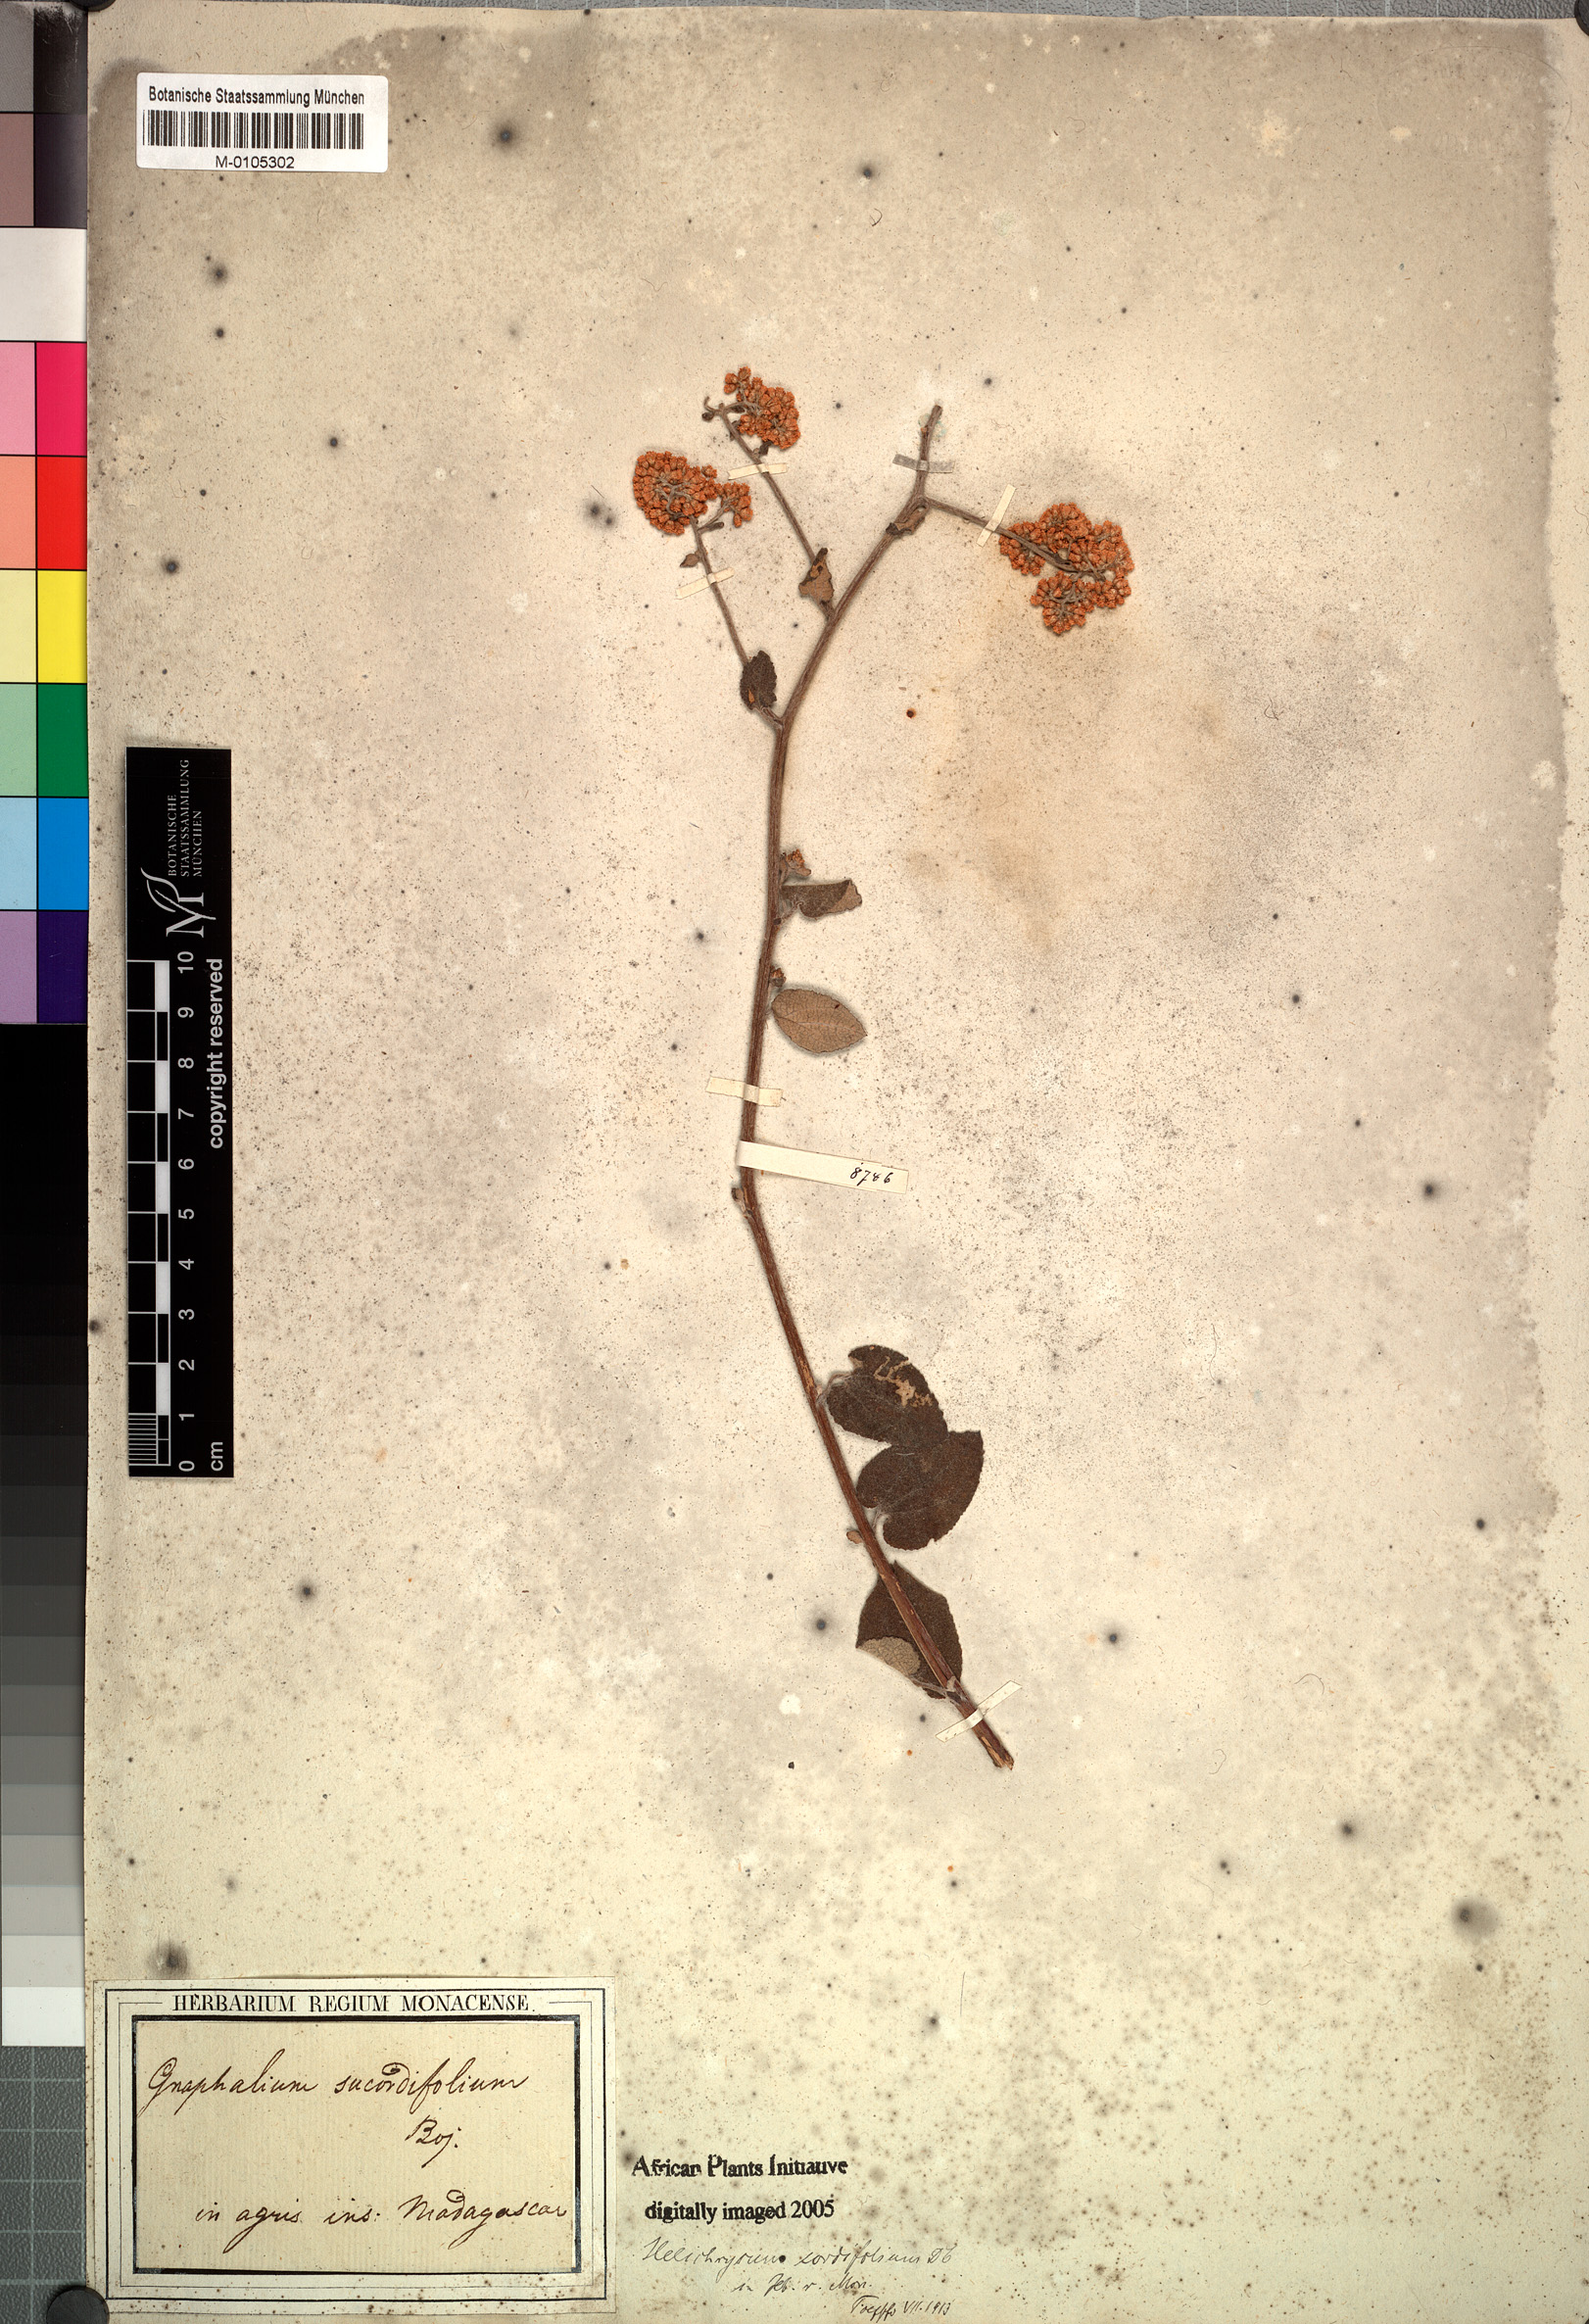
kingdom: Plantae
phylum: Tracheophyta
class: Magnoliopsida
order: Asterales
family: Asteraceae
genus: Helichrysum
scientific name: Helichrysum cordifolium
